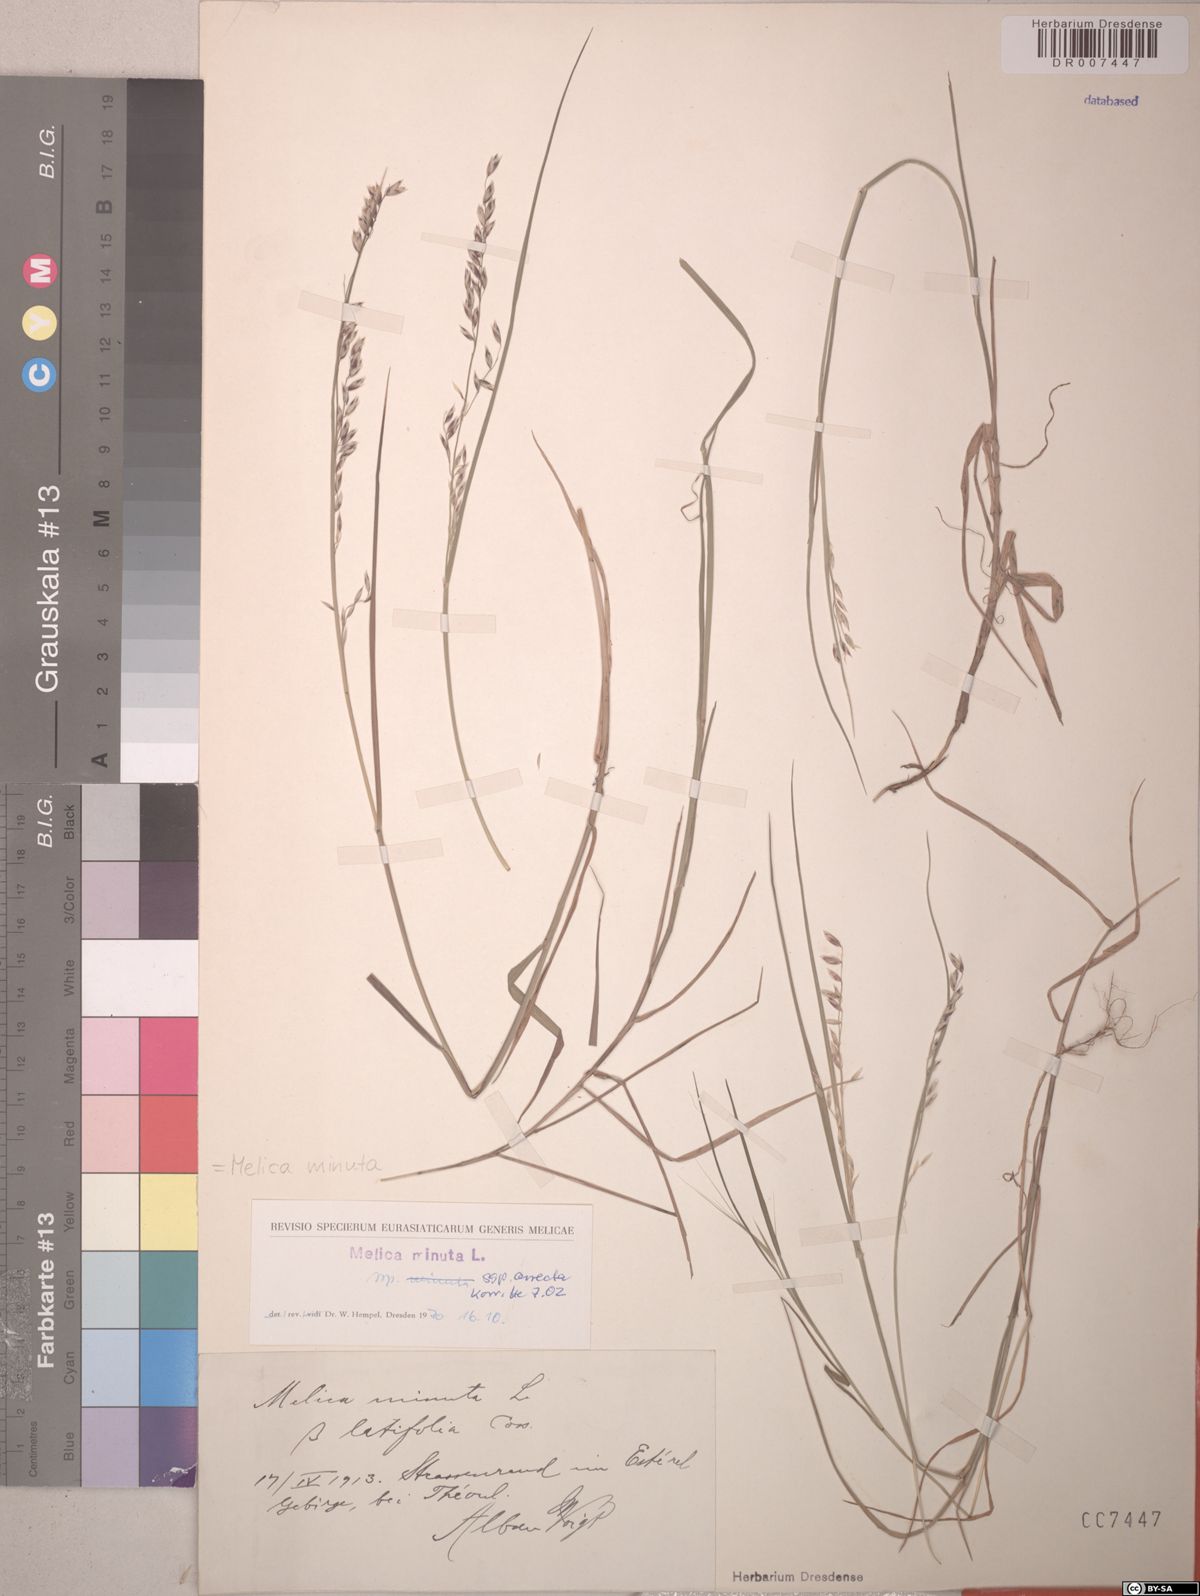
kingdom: Plantae
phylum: Tracheophyta
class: Liliopsida
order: Poales
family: Poaceae
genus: Melica
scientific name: Melica minuta
